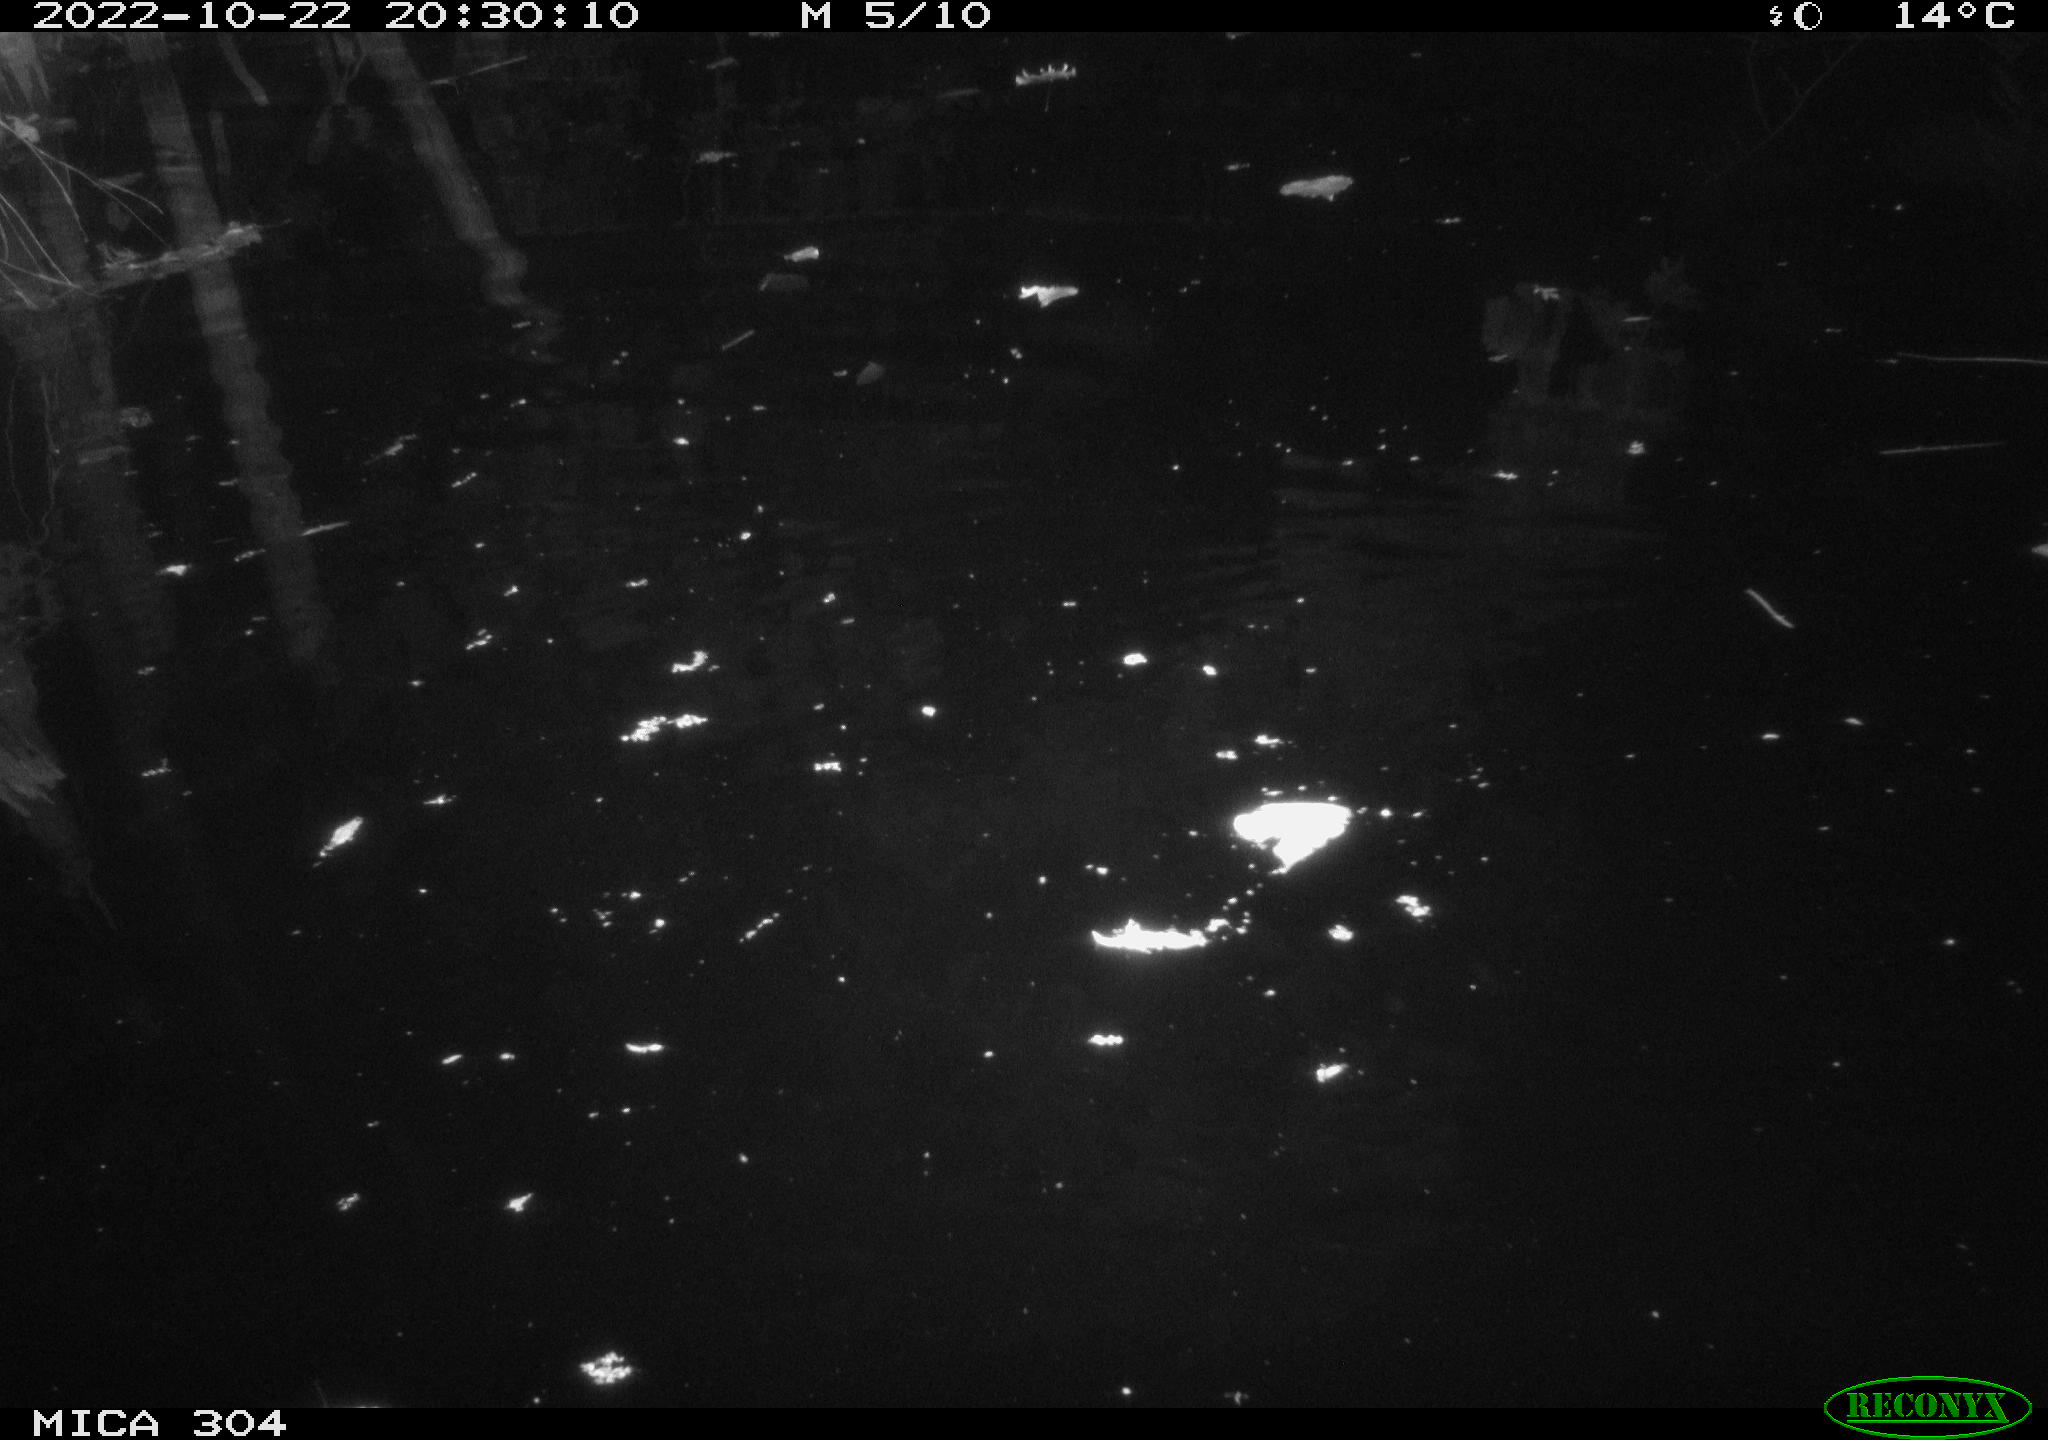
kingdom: Animalia
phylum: Chordata
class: Mammalia
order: Rodentia
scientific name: Rodentia
